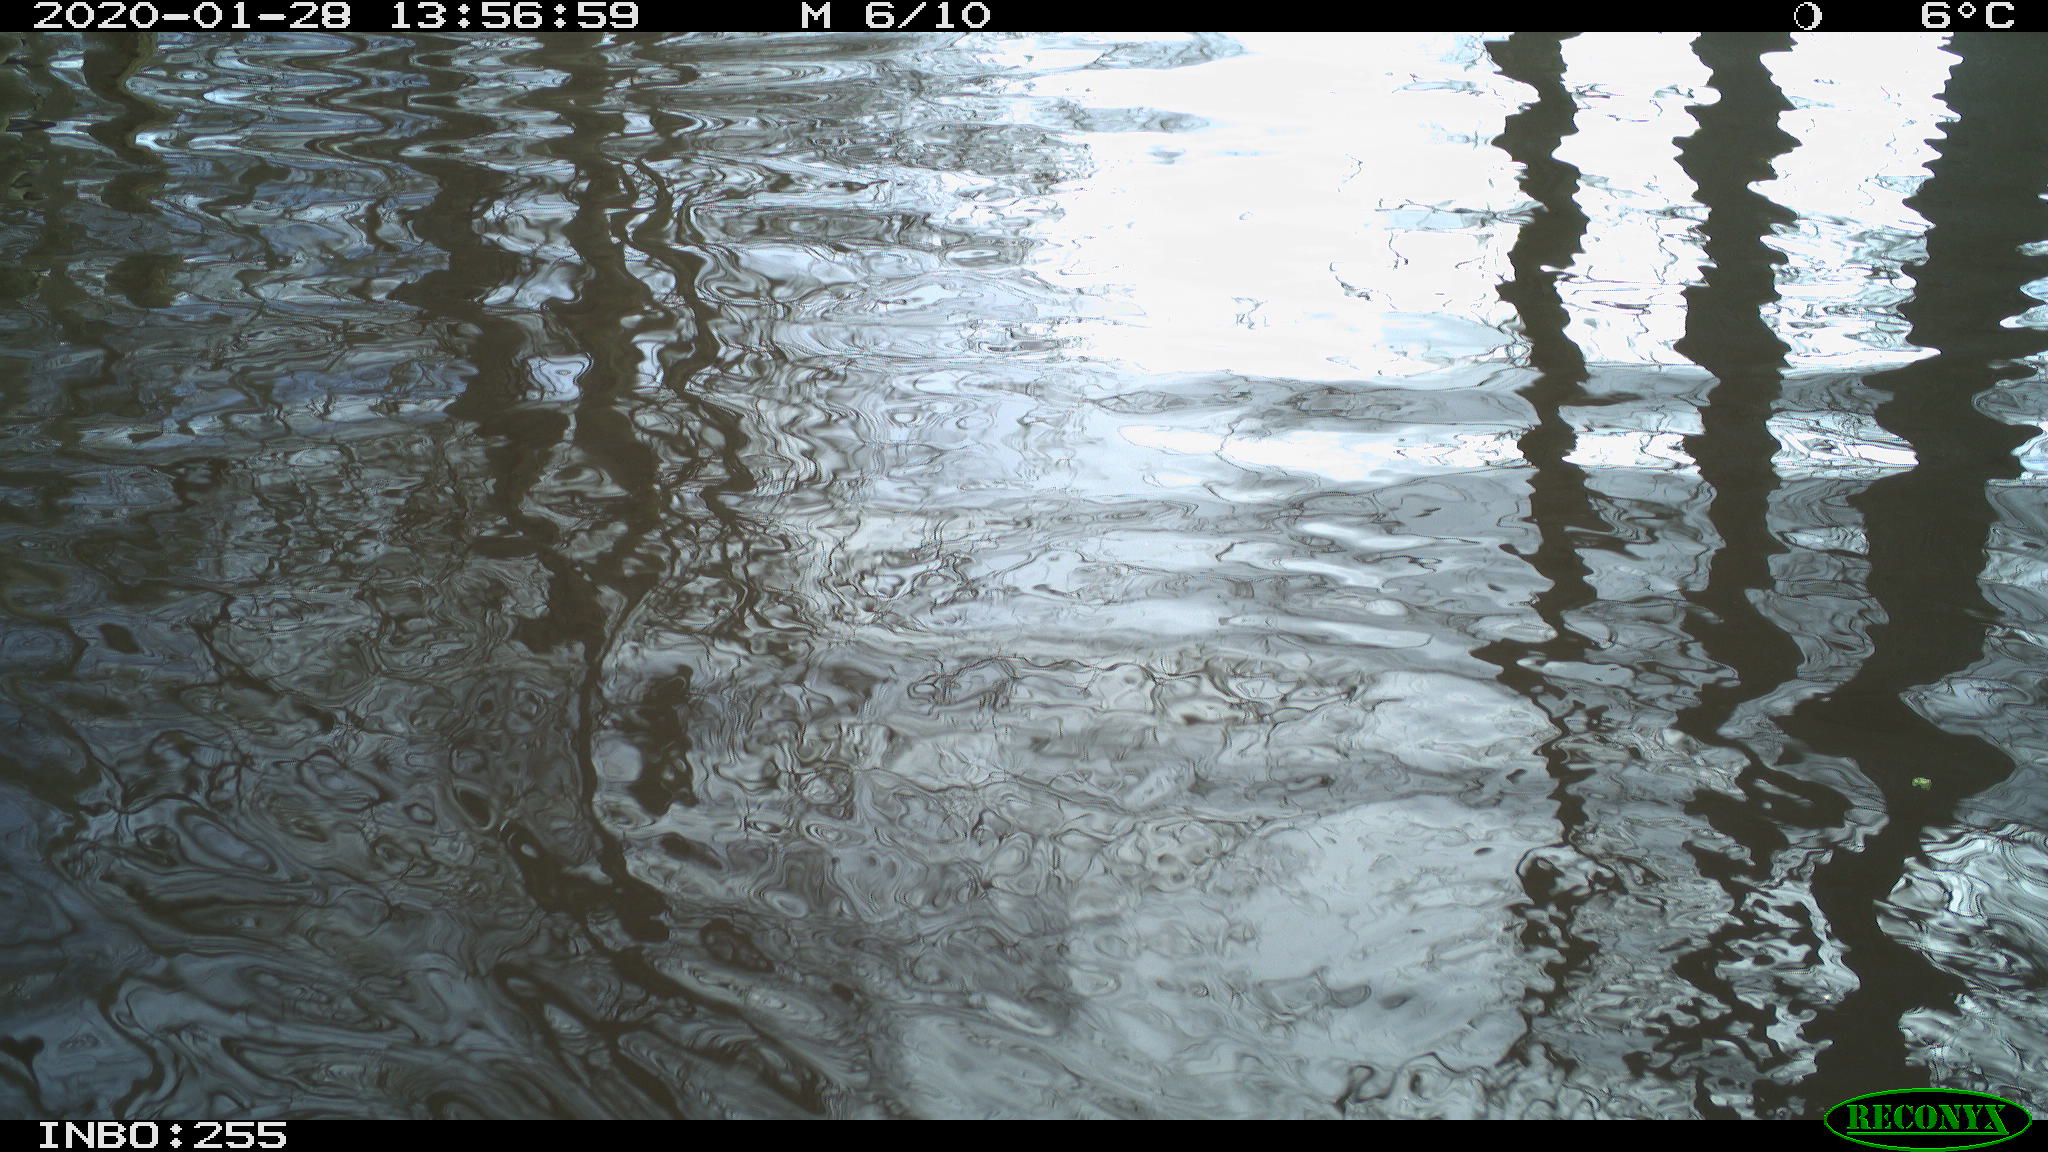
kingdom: Animalia
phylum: Chordata
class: Aves
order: Gruiformes
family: Rallidae
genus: Fulica
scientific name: Fulica atra
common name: Eurasian coot
